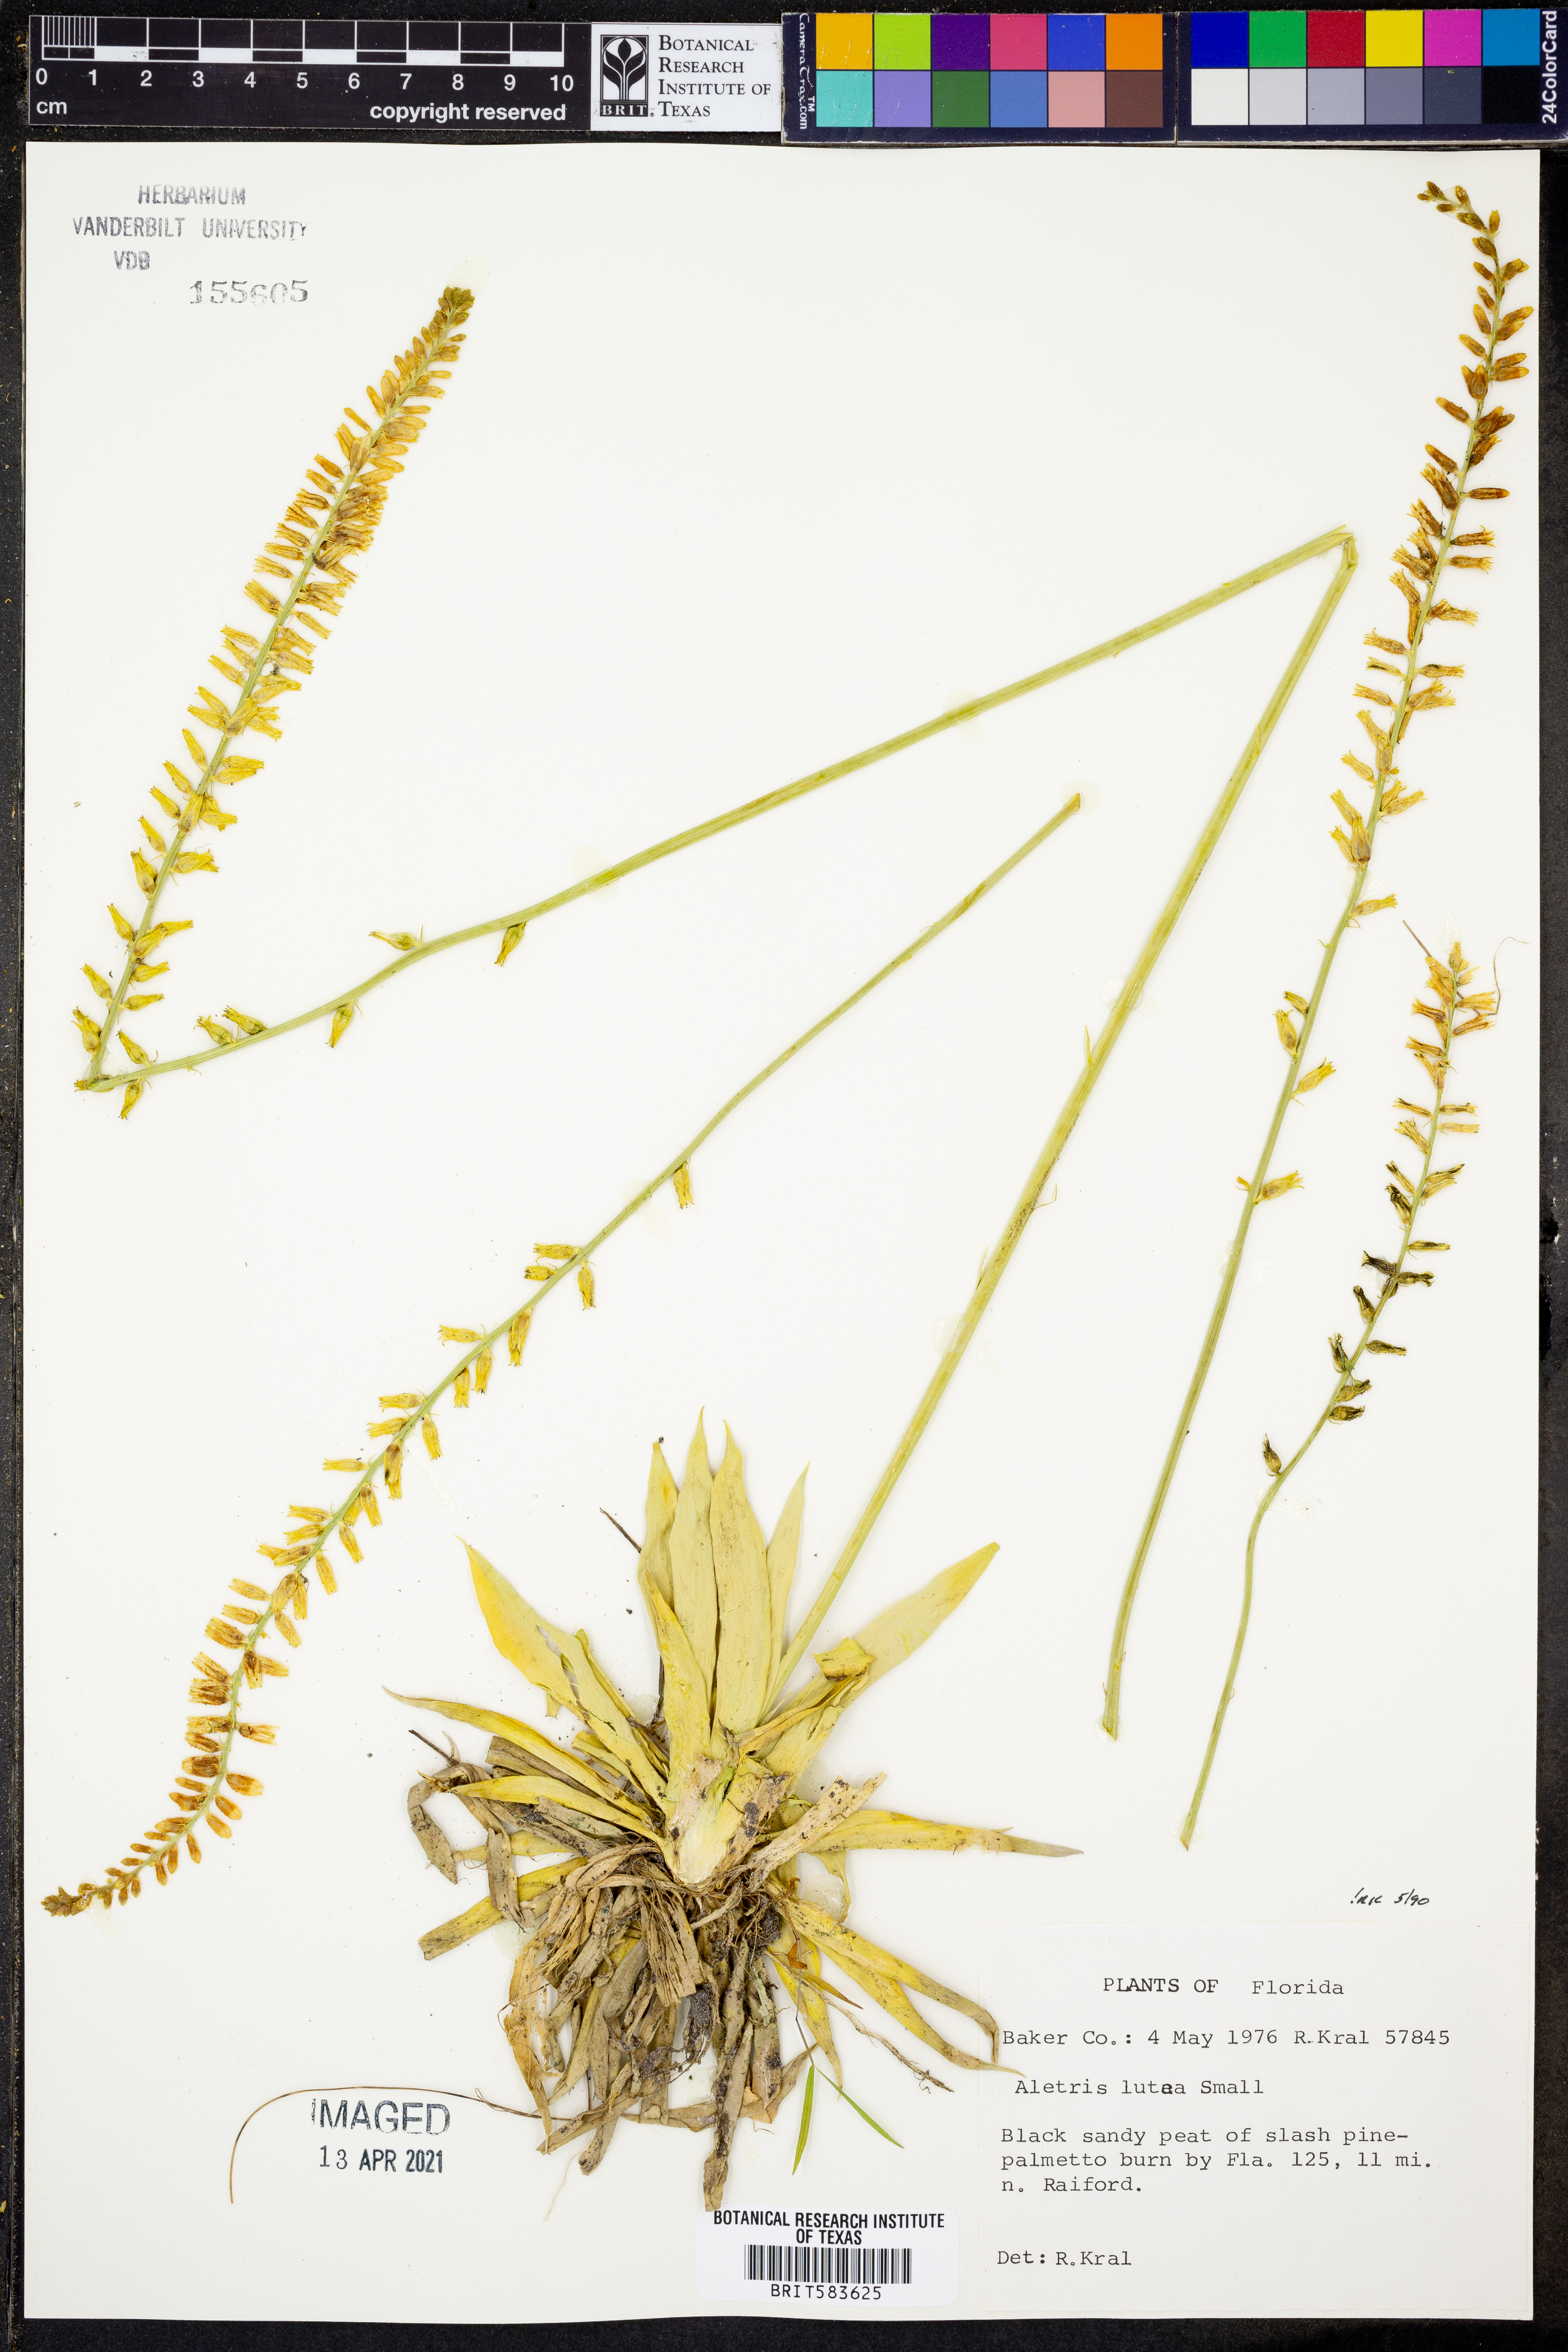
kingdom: Plantae
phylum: Tracheophyta
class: Liliopsida
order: Dioscoreales
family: Nartheciaceae
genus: Aletris
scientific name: Aletris lutea
